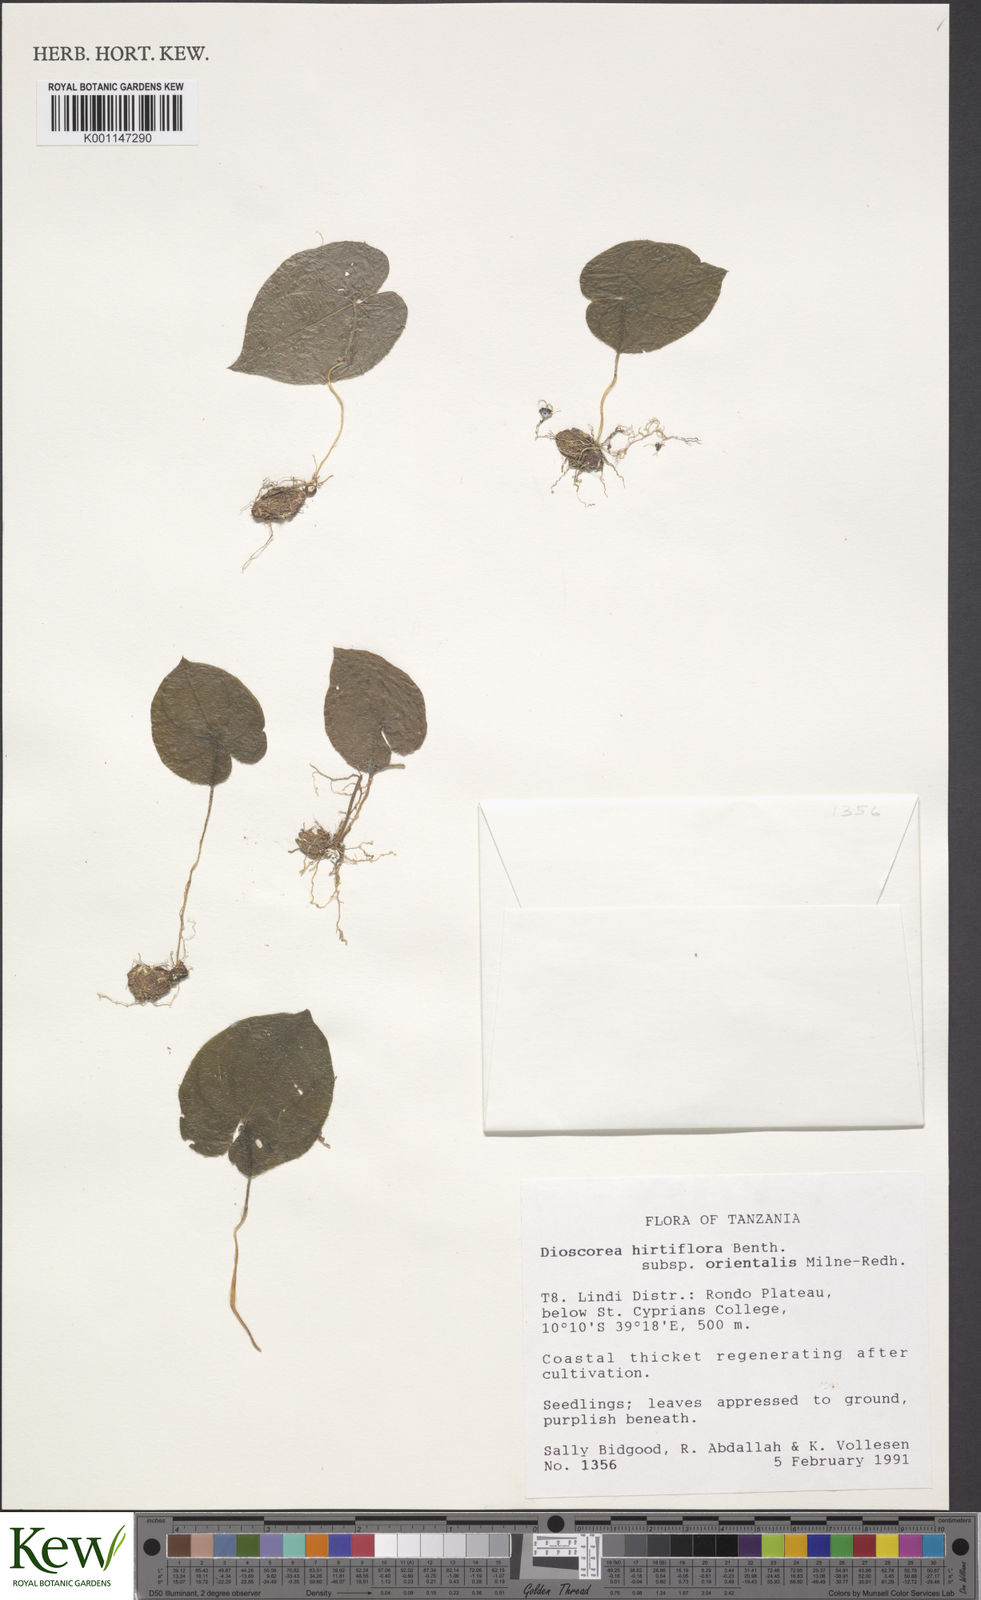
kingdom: Plantae
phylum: Tracheophyta
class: Liliopsida
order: Dioscoreales
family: Dioscoreaceae
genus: Dioscorea
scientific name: Dioscorea hirtiflora
